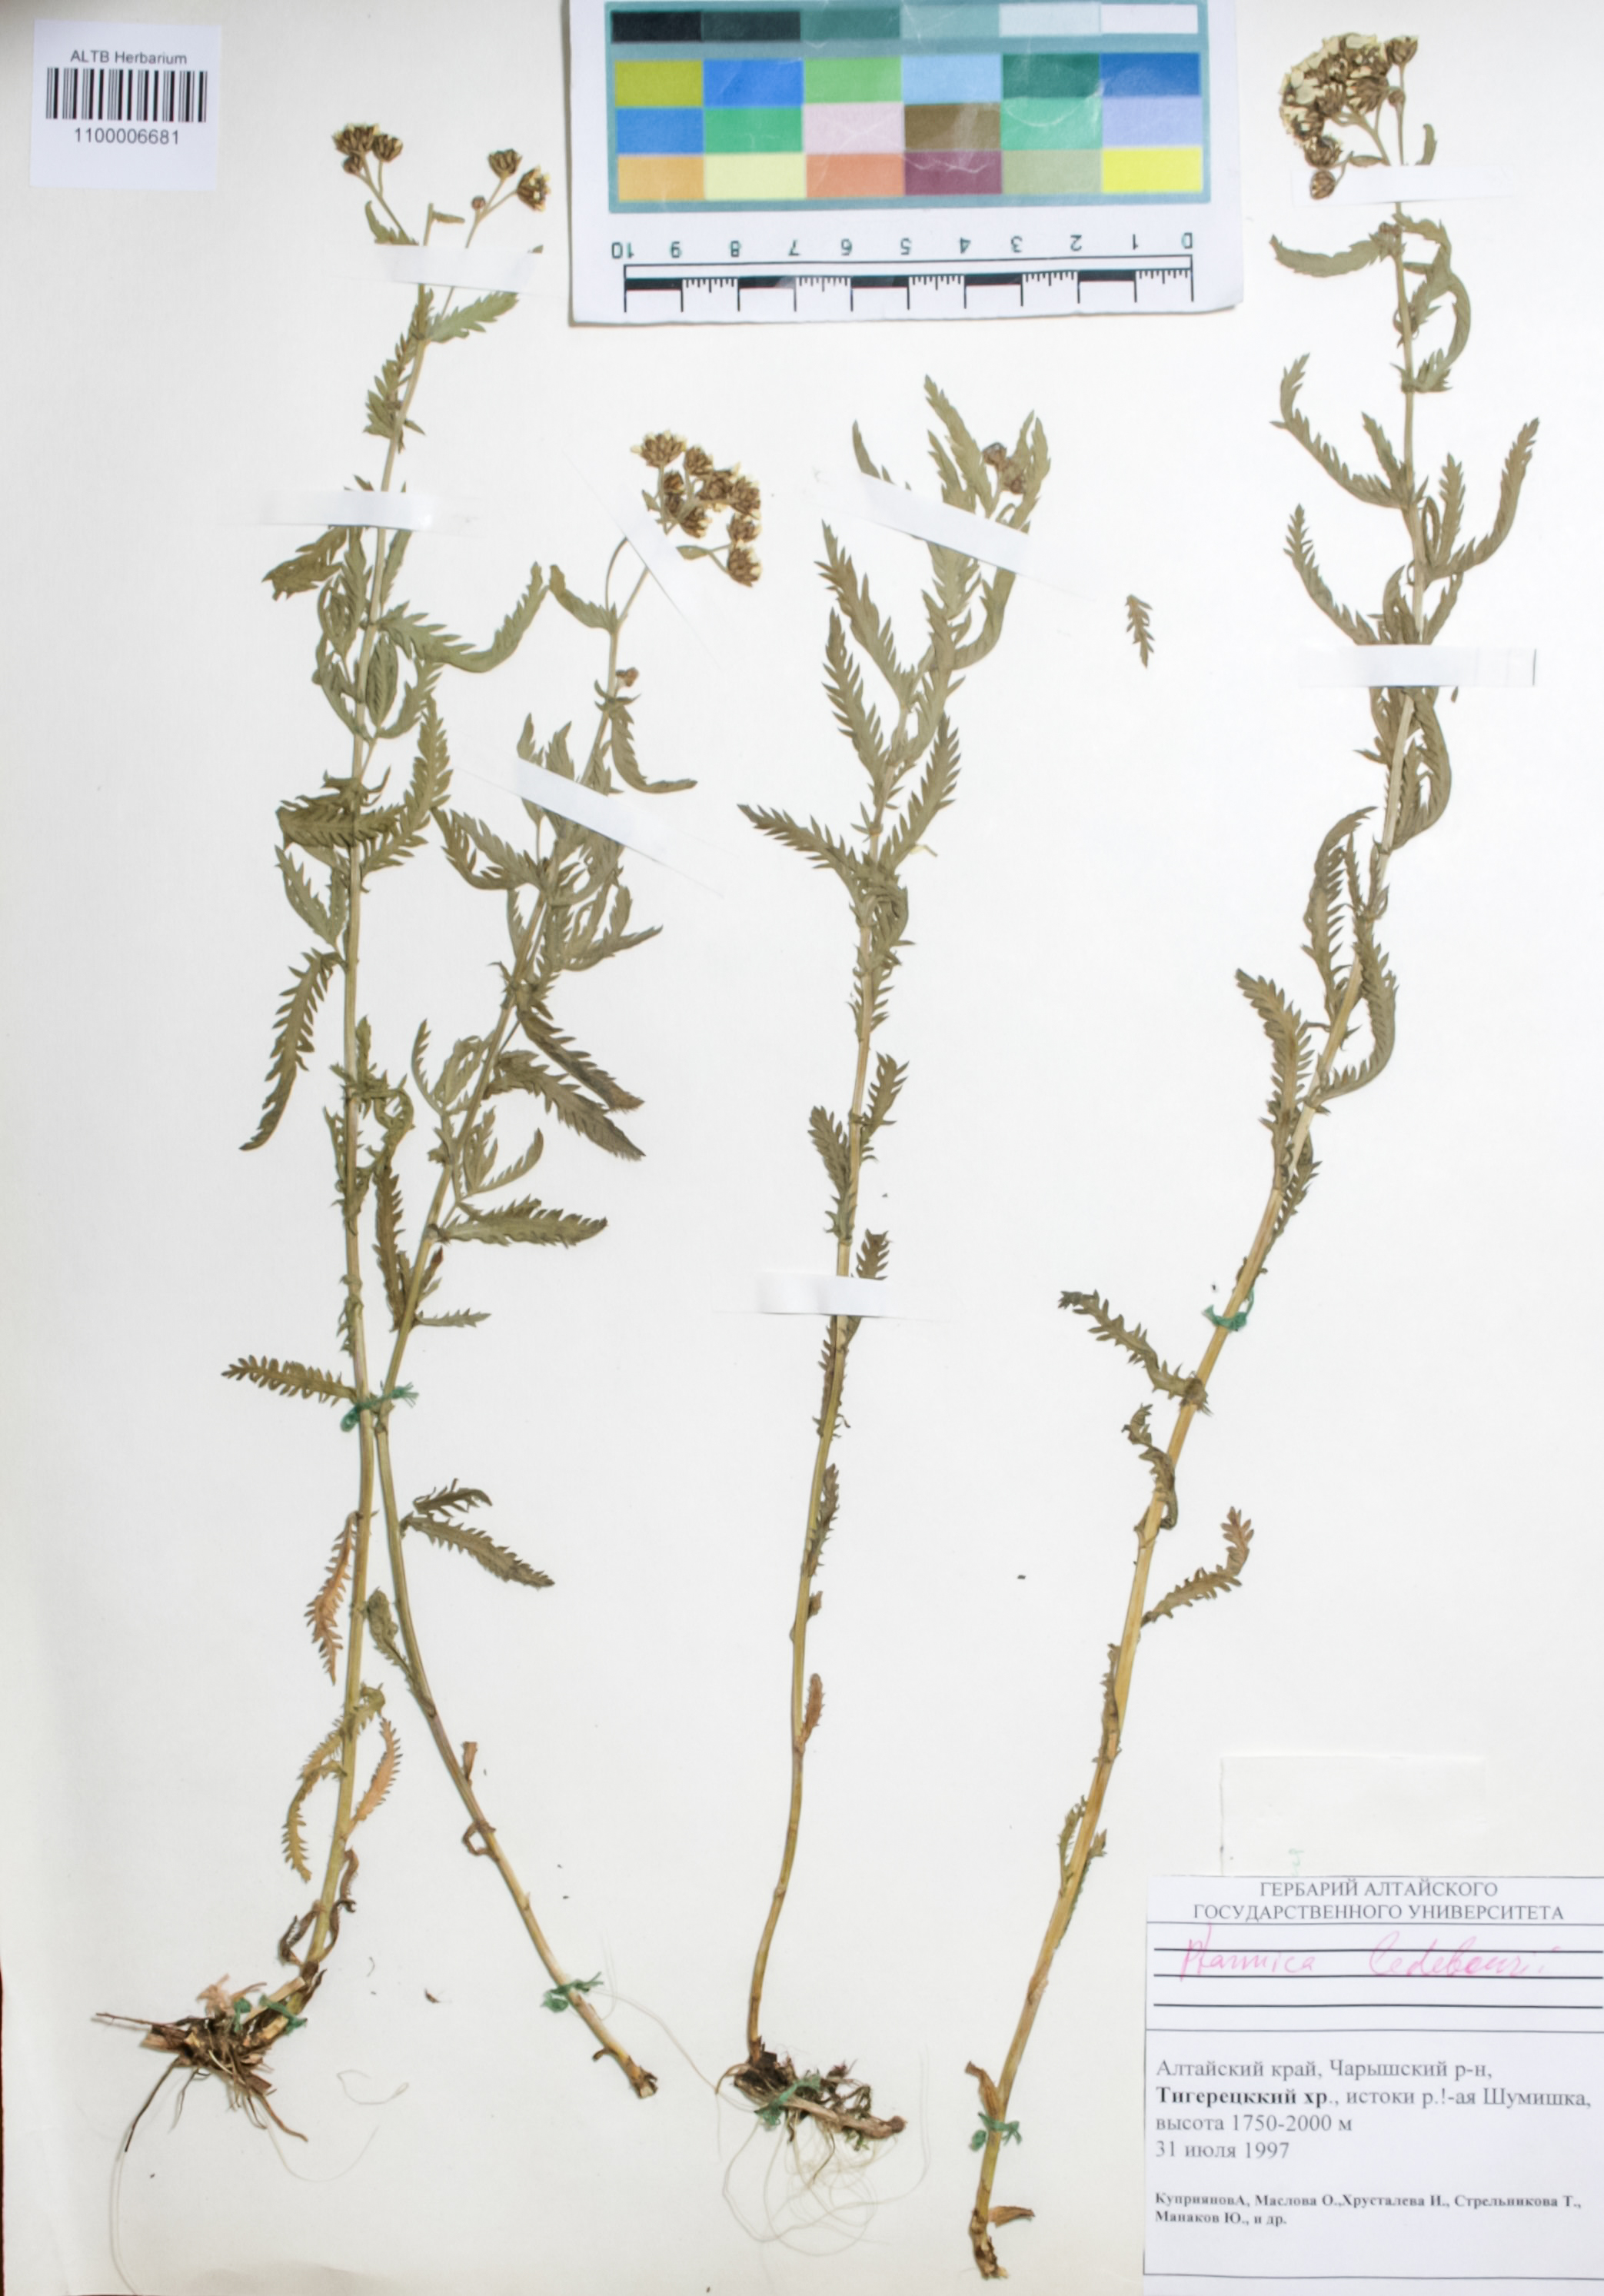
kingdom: Plantae
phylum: Tracheophyta
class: Magnoliopsida
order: Asterales
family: Asteraceae
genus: Achillea
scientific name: Achillea ledebourii
